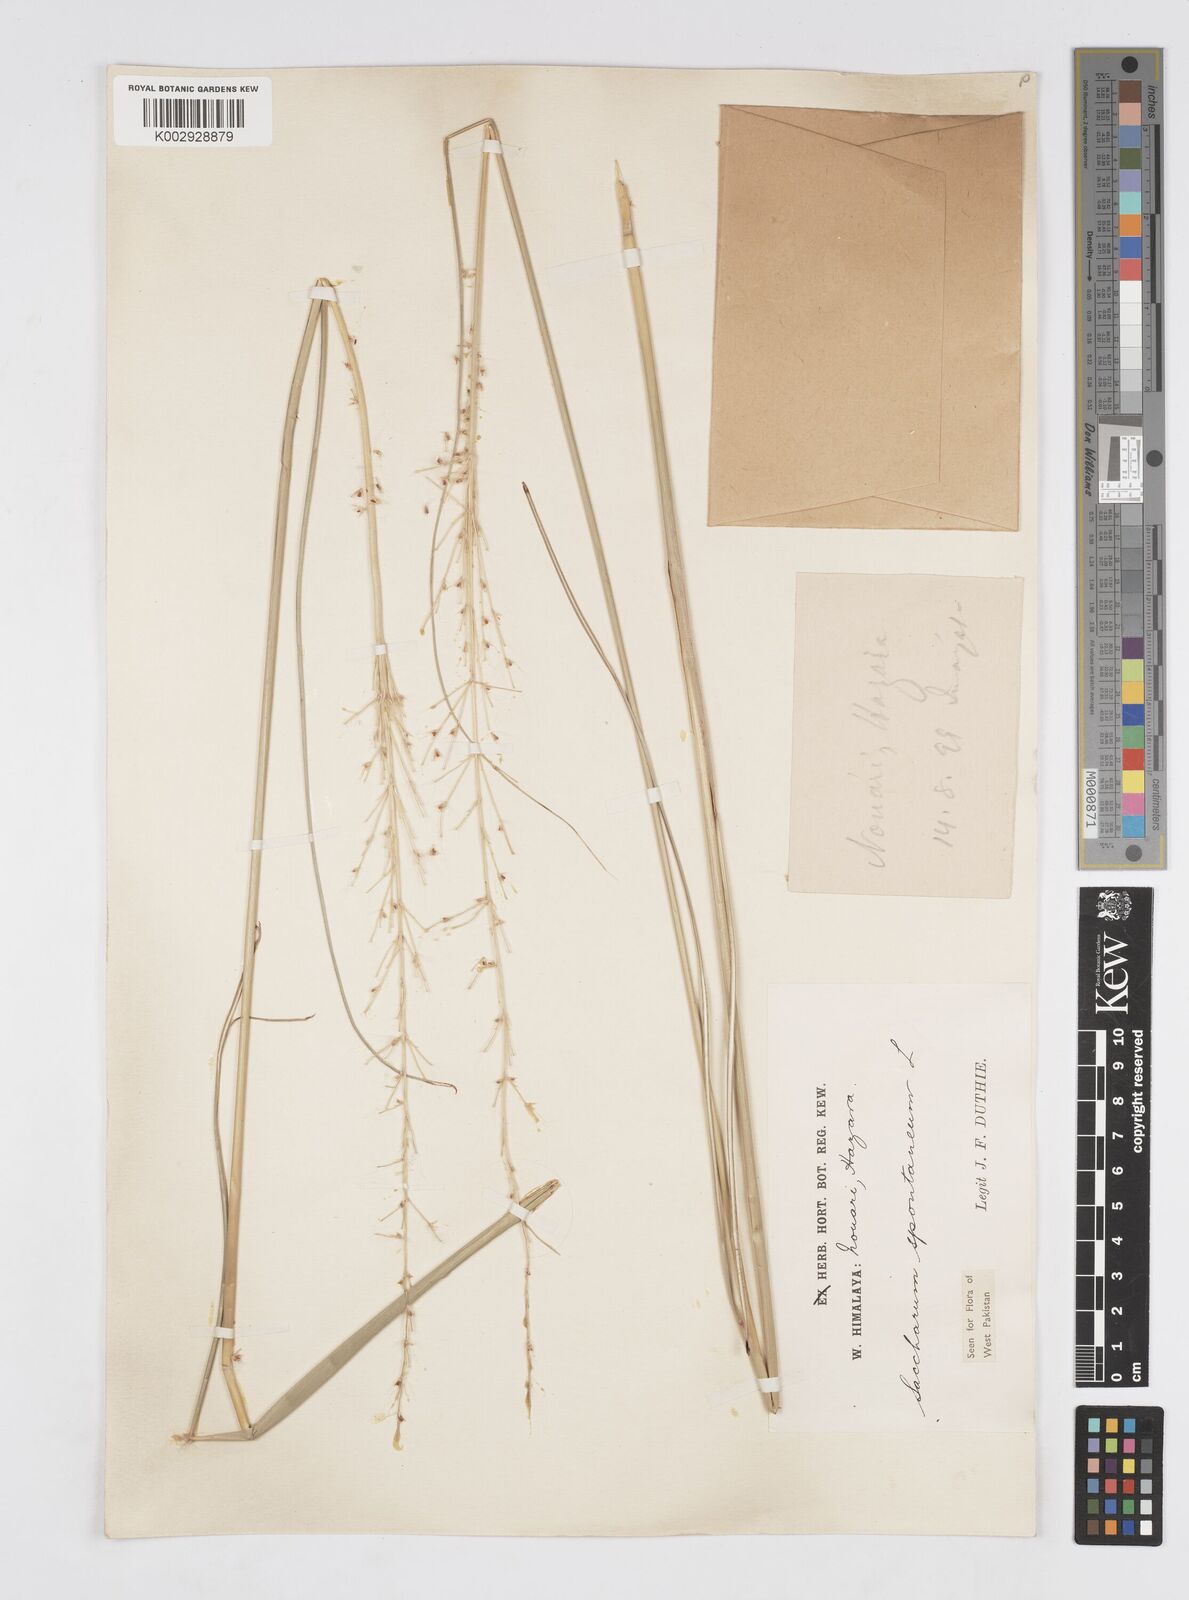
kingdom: Plantae
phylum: Tracheophyta
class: Liliopsida
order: Poales
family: Poaceae
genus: Saccharum
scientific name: Saccharum spontaneum
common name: Wild sugarcane
